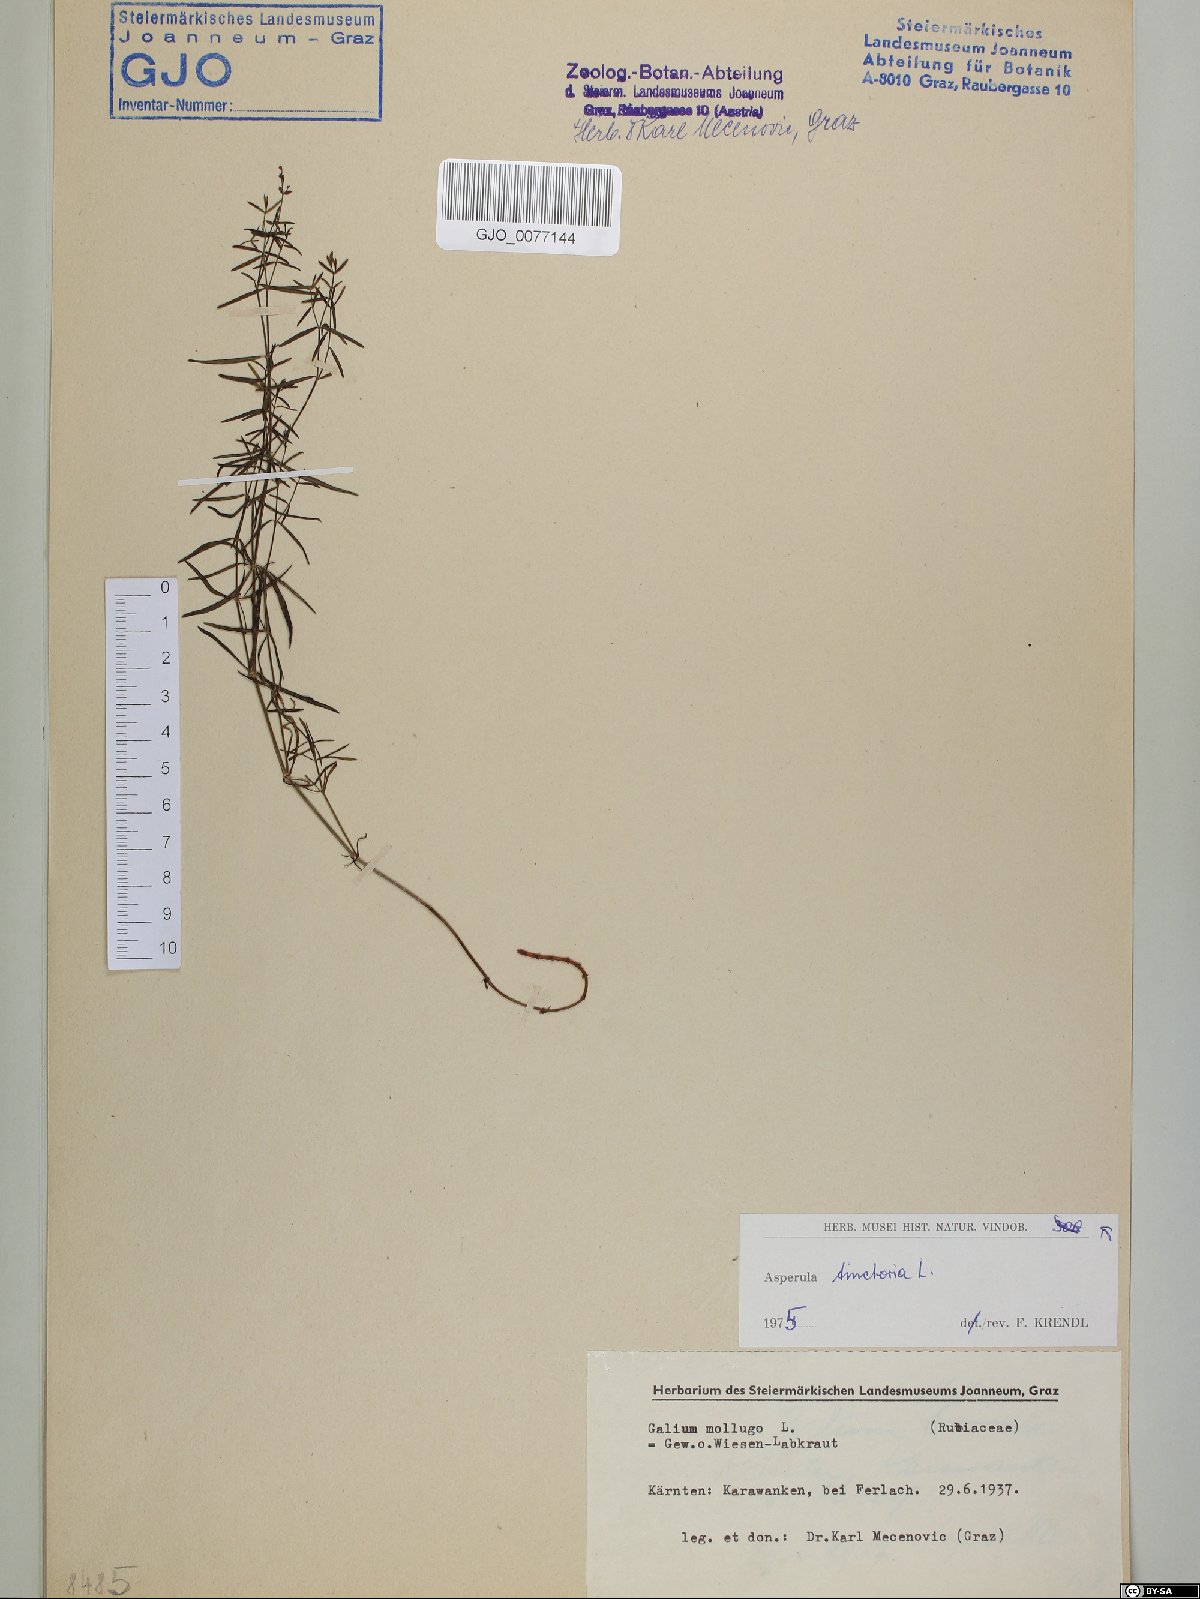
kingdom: Plantae
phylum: Tracheophyta
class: Magnoliopsida
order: Gentianales
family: Rubiaceae
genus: Asperula
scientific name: Asperula tinctoria
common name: Dyer's woodruff
